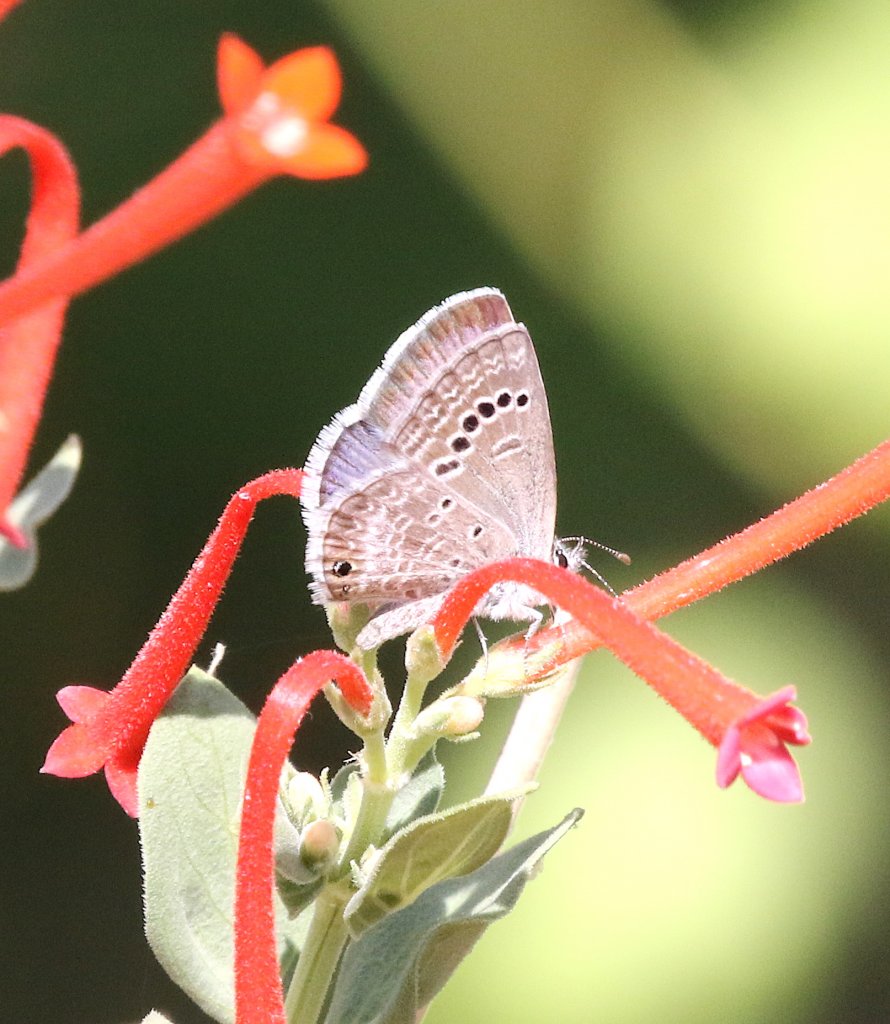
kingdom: Animalia
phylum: Arthropoda
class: Insecta
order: Lepidoptera
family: Lycaenidae
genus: Echinargus
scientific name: Echinargus isola
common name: Reakirt's Blue
